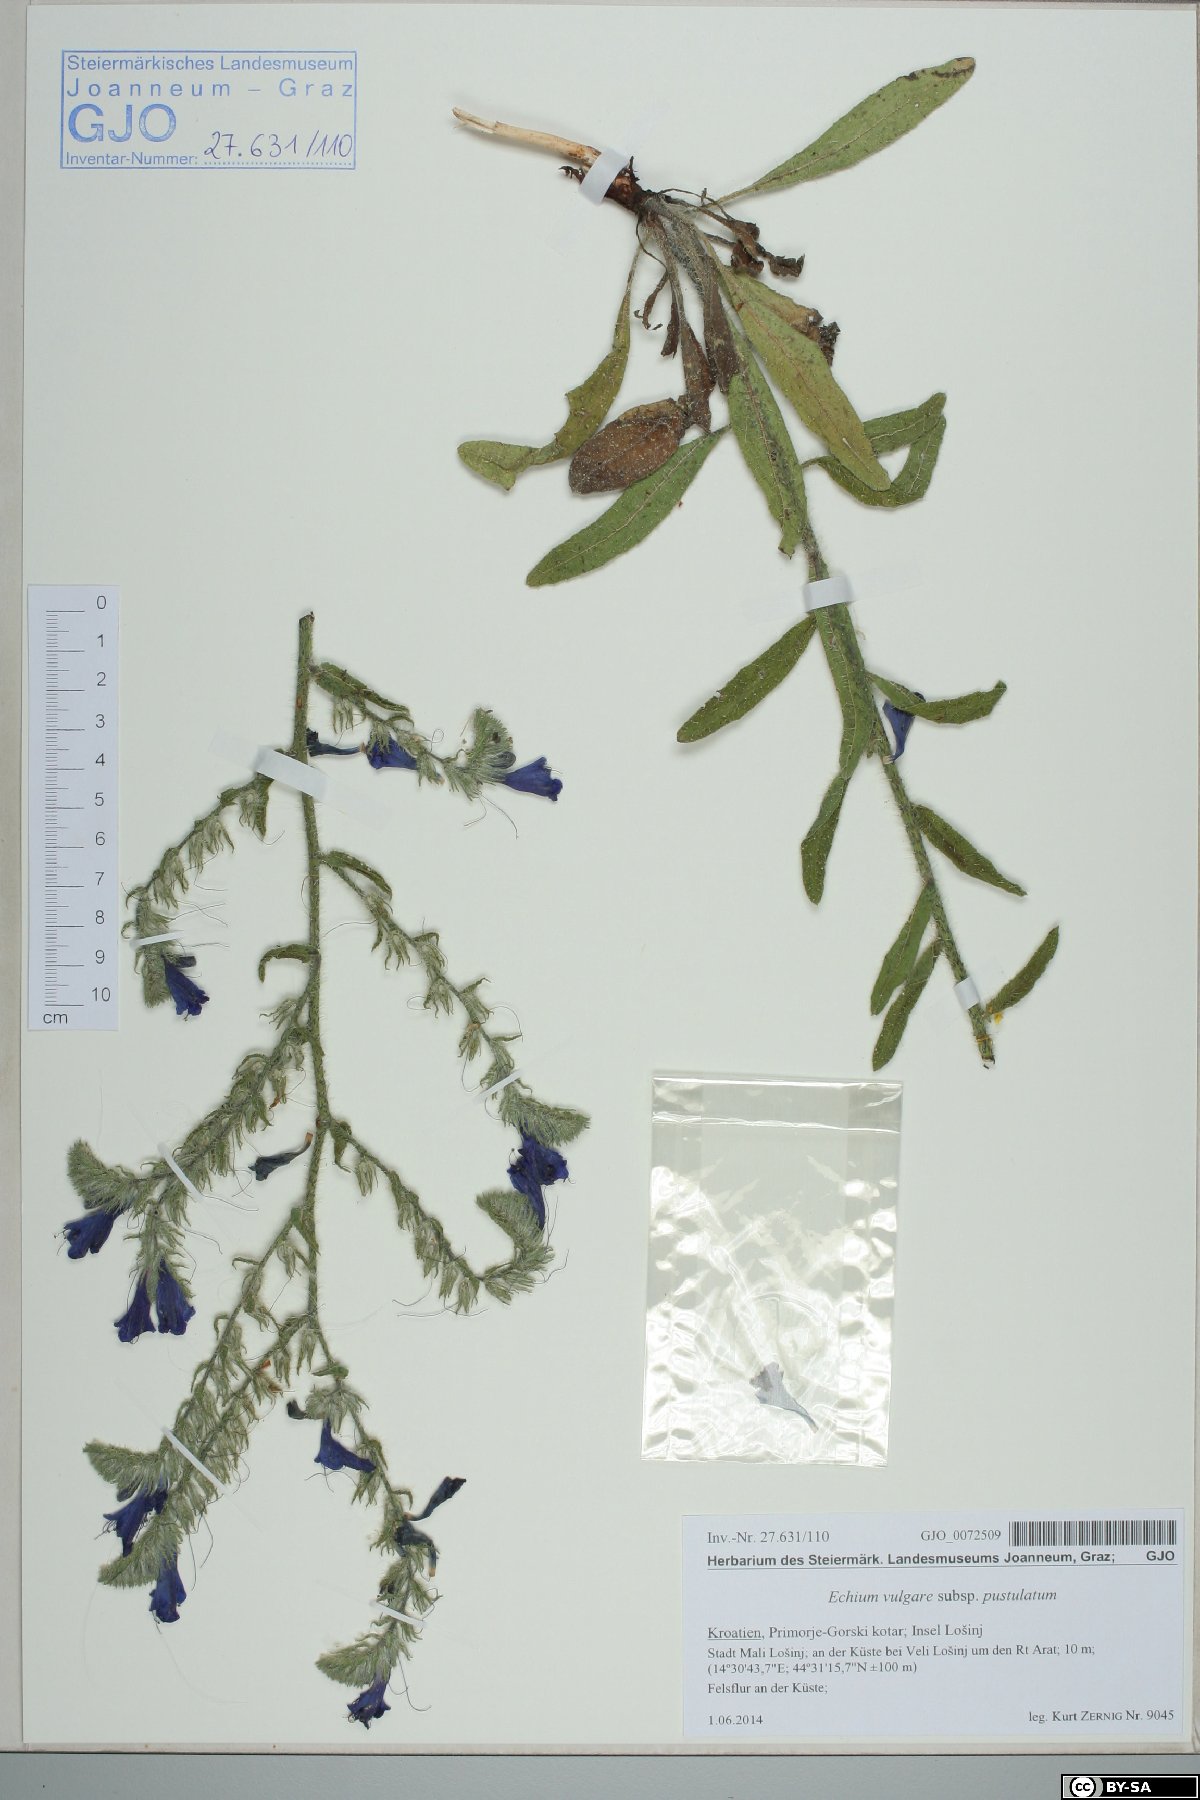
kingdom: Plantae
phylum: Tracheophyta
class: Magnoliopsida
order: Boraginales
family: Boraginaceae
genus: Echium
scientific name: Echium vulgare
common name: Common viper's bugloss
